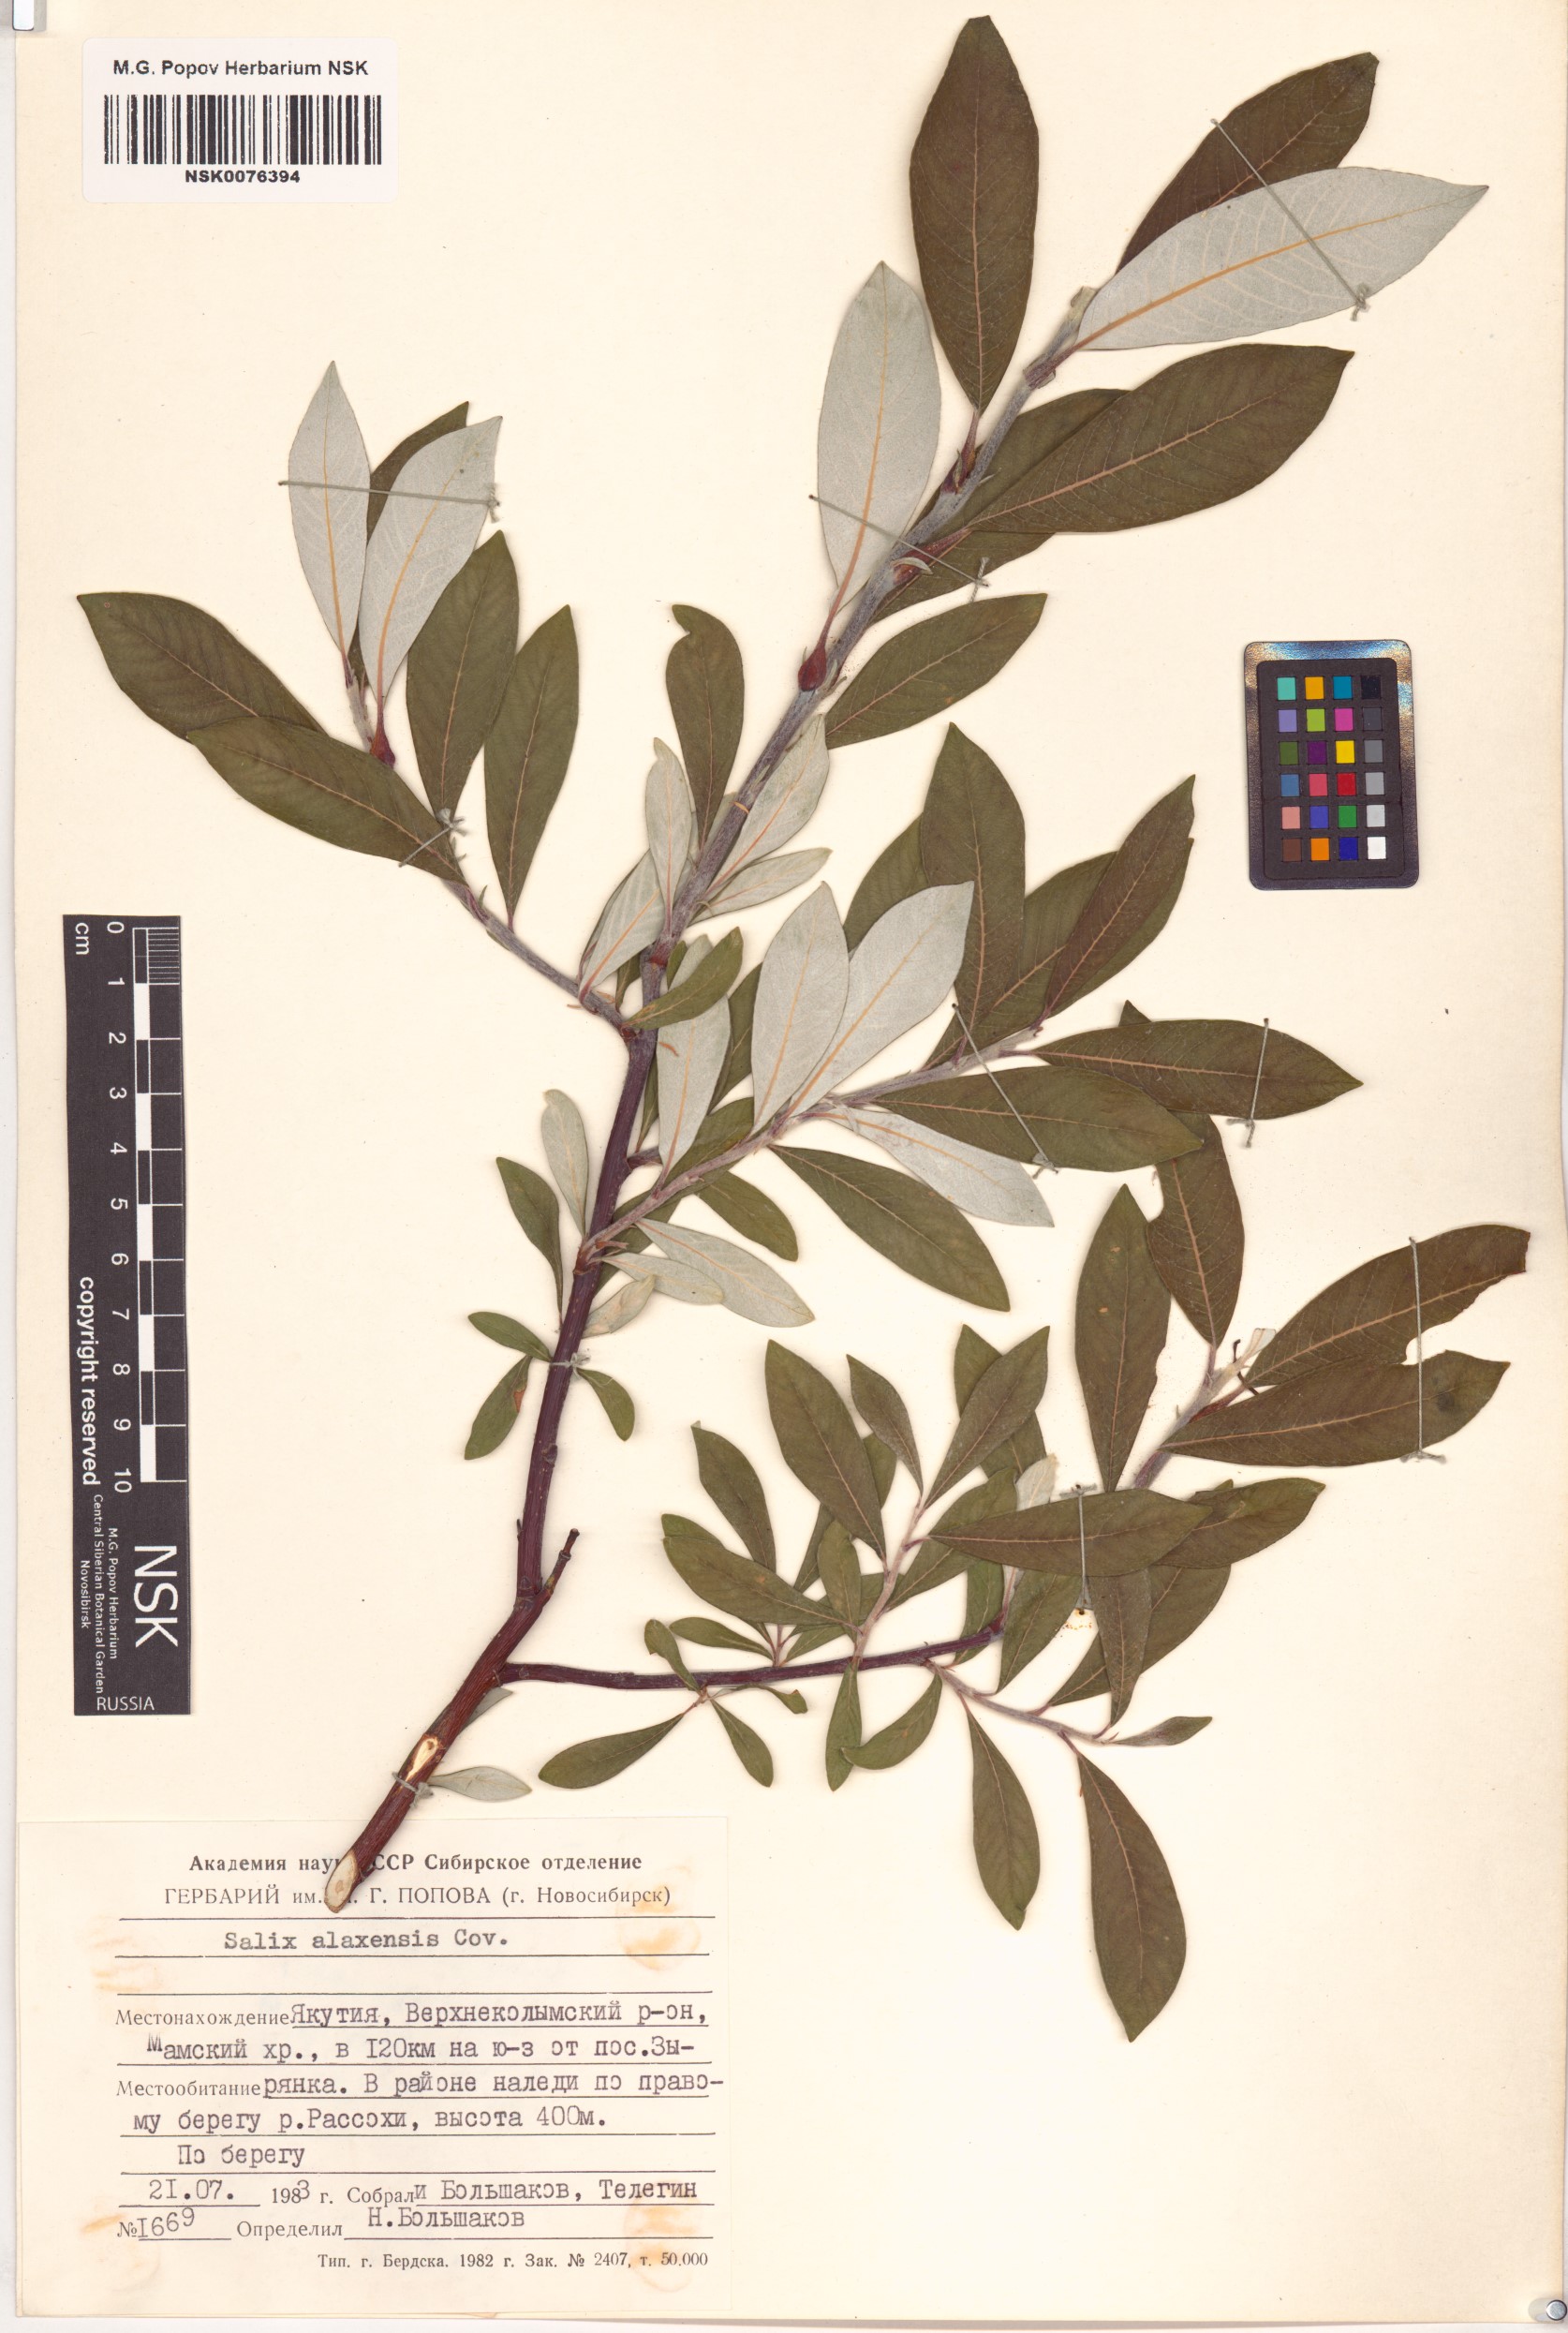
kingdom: Plantae
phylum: Tracheophyta
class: Magnoliopsida
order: Malpighiales
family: Salicaceae
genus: Salix
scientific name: Salix alaxensis
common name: Feltleaf willow
